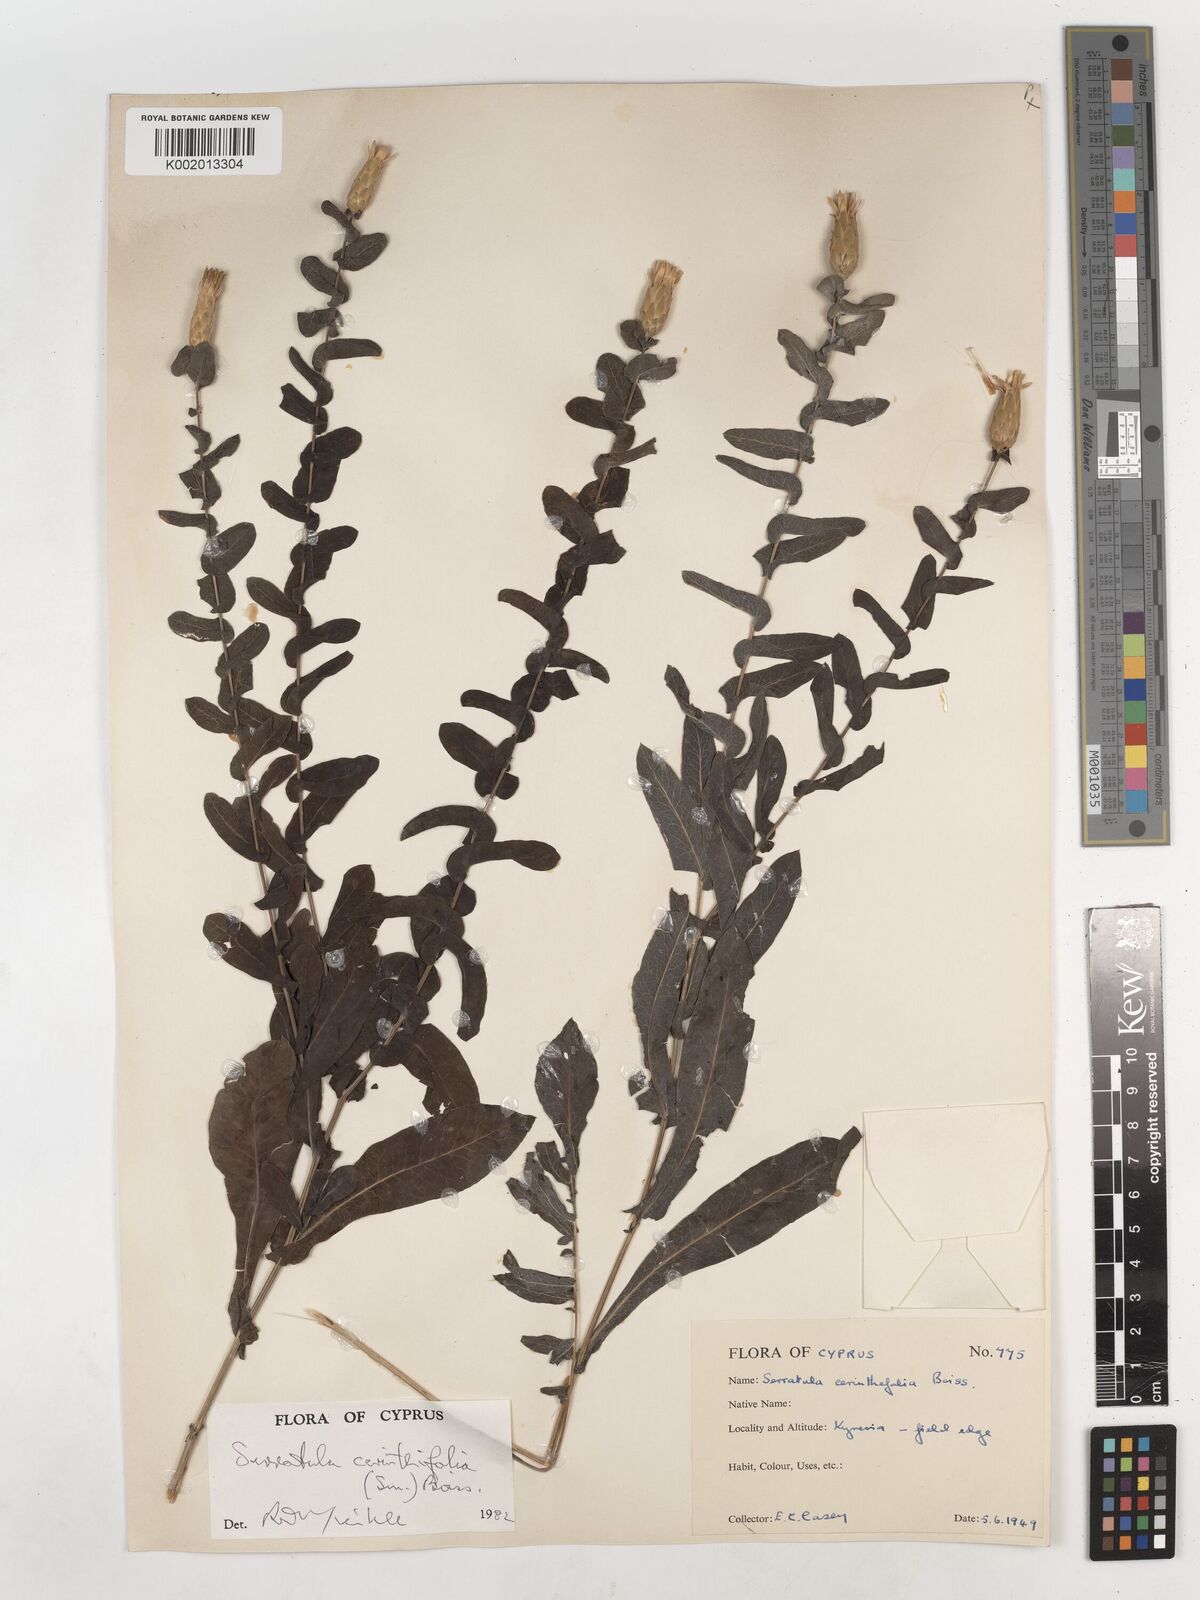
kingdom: Plantae
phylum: Tracheophyta
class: Magnoliopsida
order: Asterales
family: Asteraceae
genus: Klasea
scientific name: Klasea cerinthifolia
